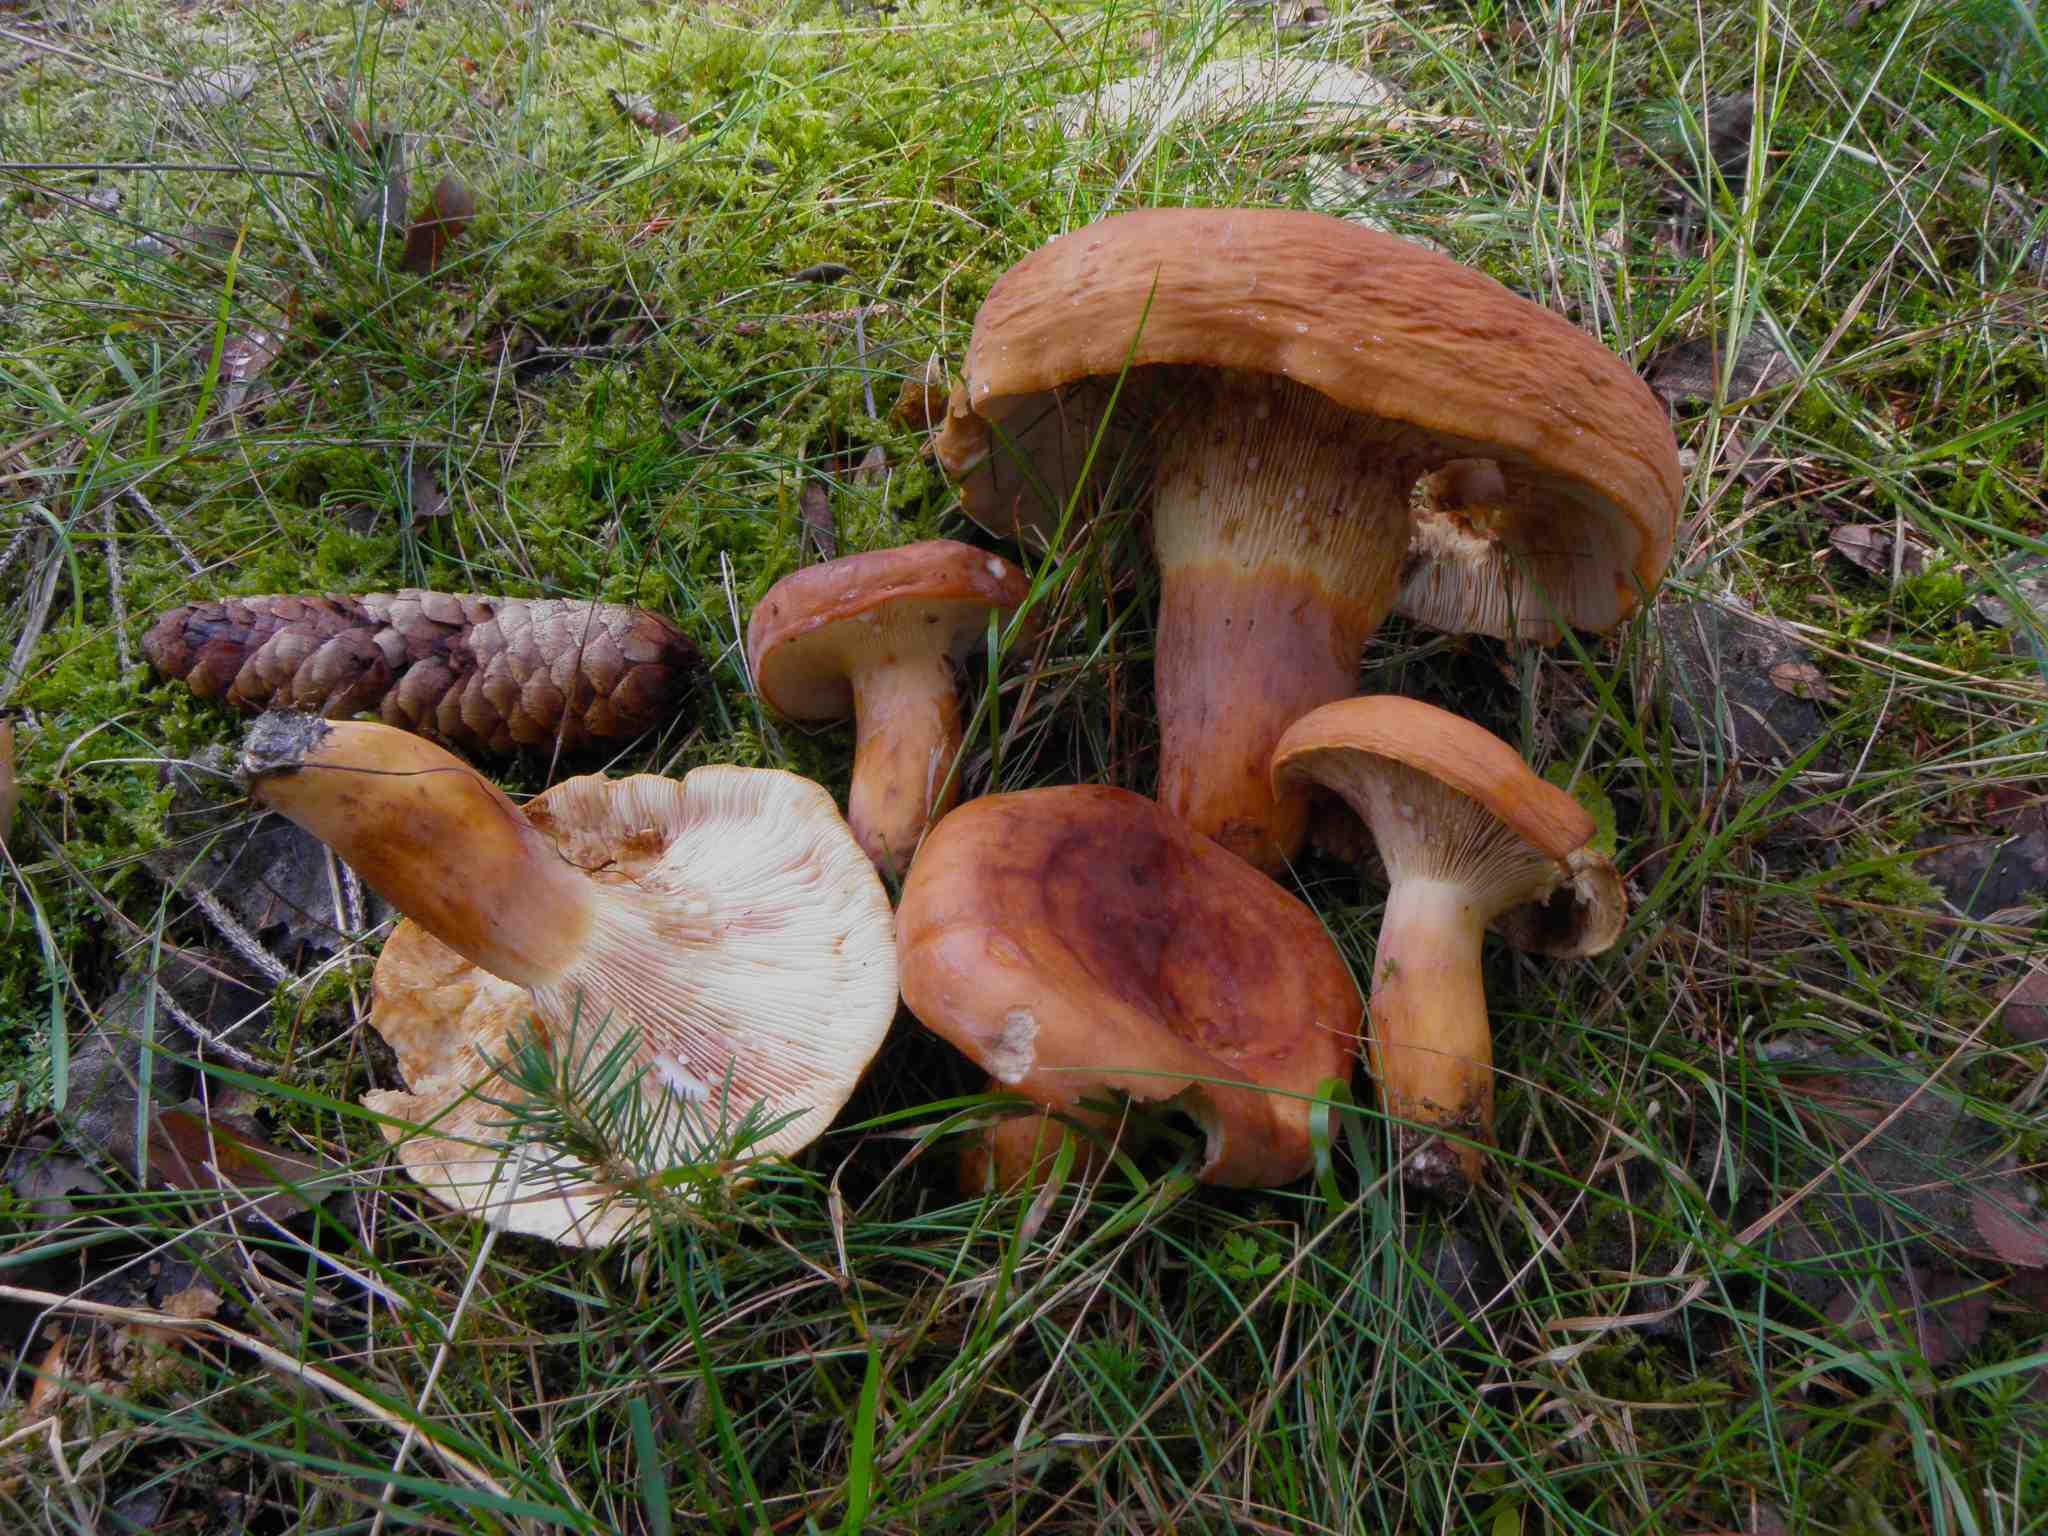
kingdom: Fungi
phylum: Basidiomycota
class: Agaricomycetes
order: Russulales
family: Russulaceae
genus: Lactifluus
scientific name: Lactifluus volemus
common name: spiselig mælkehat
